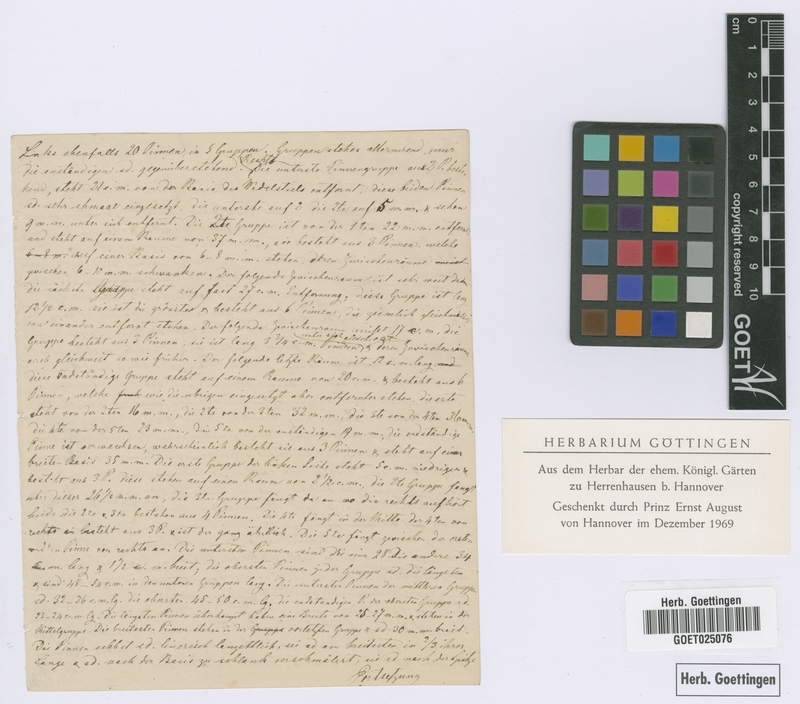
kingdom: Plantae
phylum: Tracheophyta
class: Liliopsida
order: Arecales
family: Arecaceae
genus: Bactris
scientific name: Bactris
